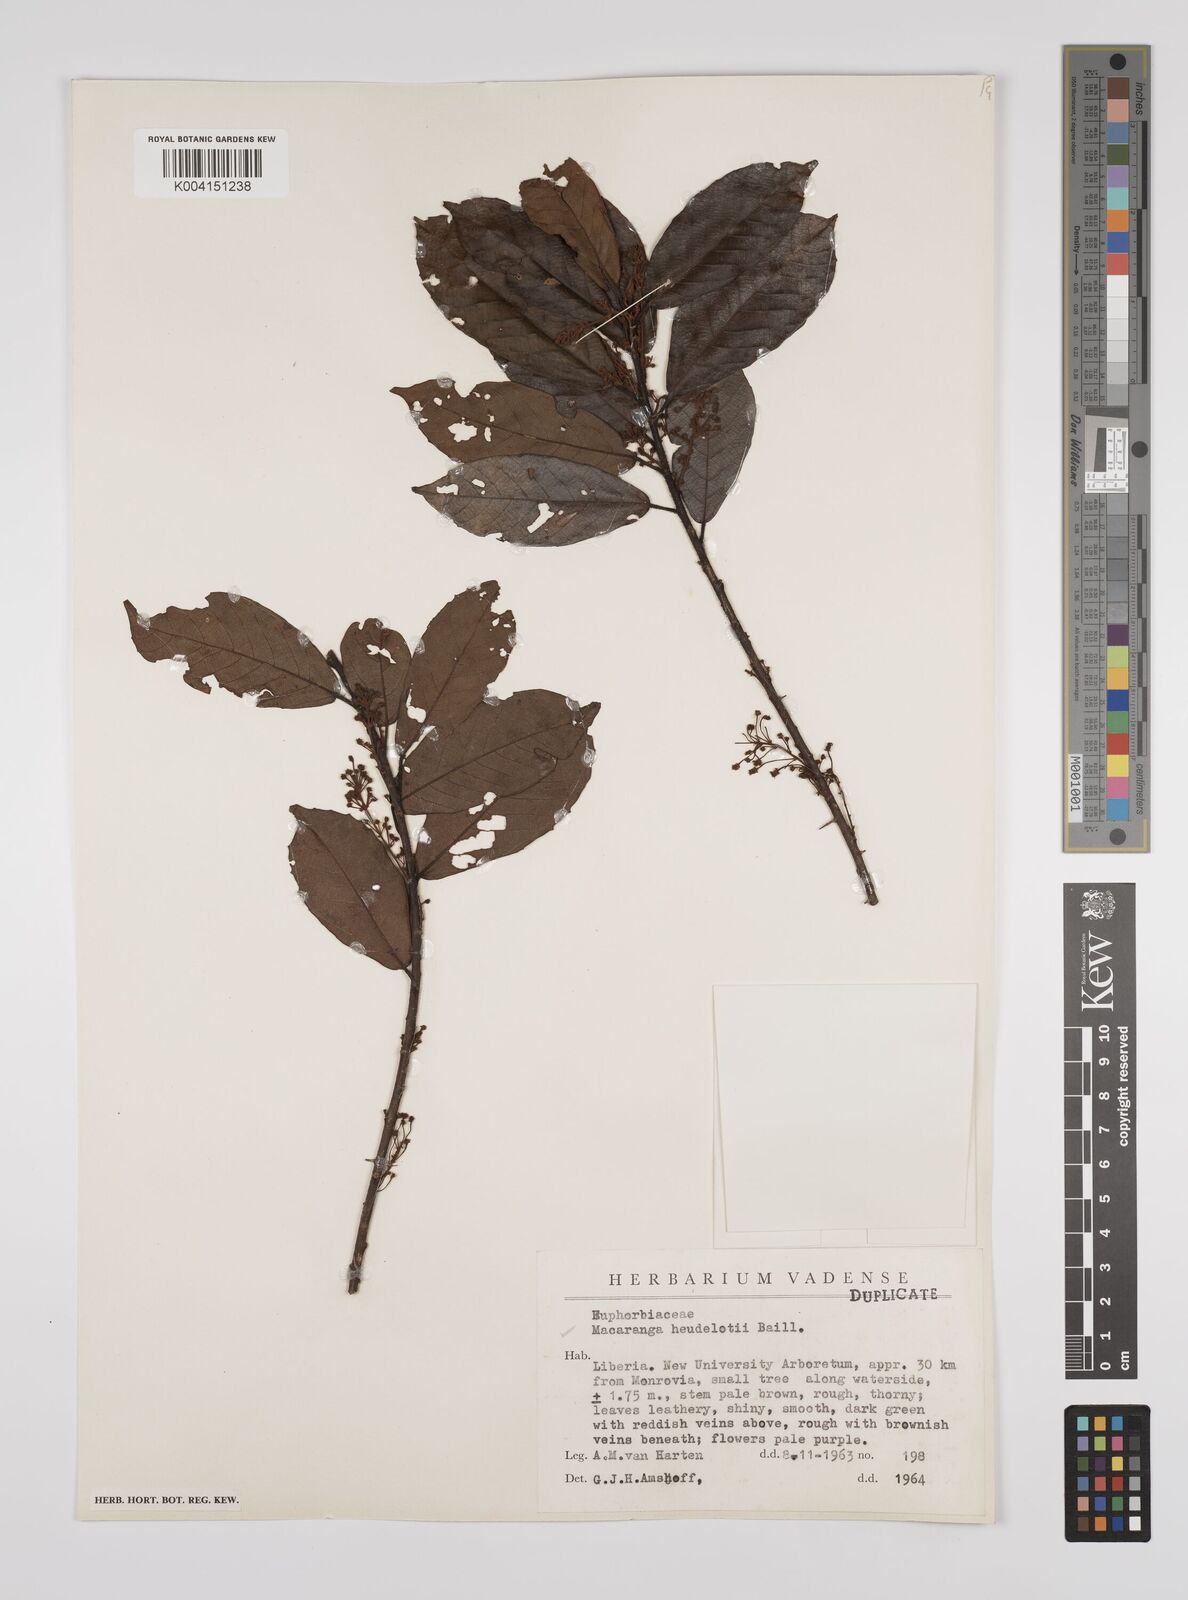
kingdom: Plantae
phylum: Tracheophyta
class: Magnoliopsida
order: Malpighiales
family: Euphorbiaceae
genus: Macaranga
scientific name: Macaranga heudelotii
